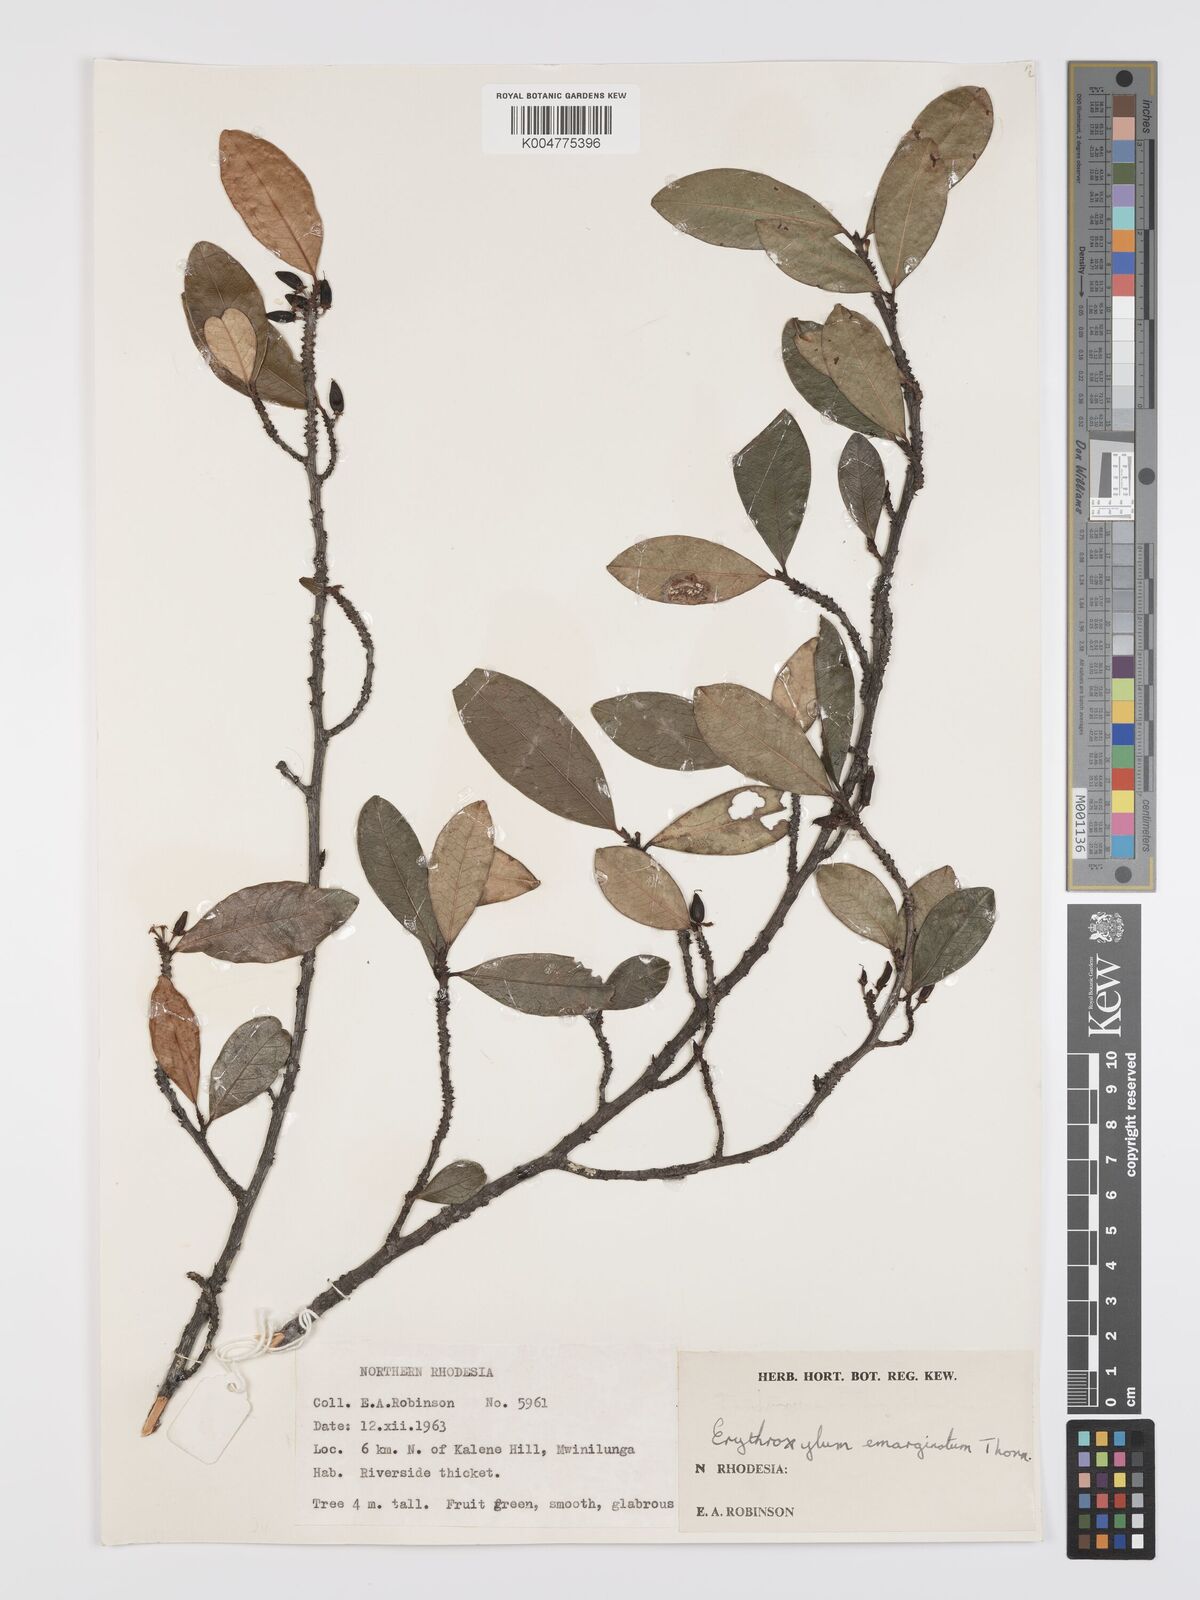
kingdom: Plantae
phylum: Tracheophyta
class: Magnoliopsida
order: Malpighiales
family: Erythroxylaceae
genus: Erythroxylum
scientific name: Erythroxylum emarginatum
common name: African coca-tree
